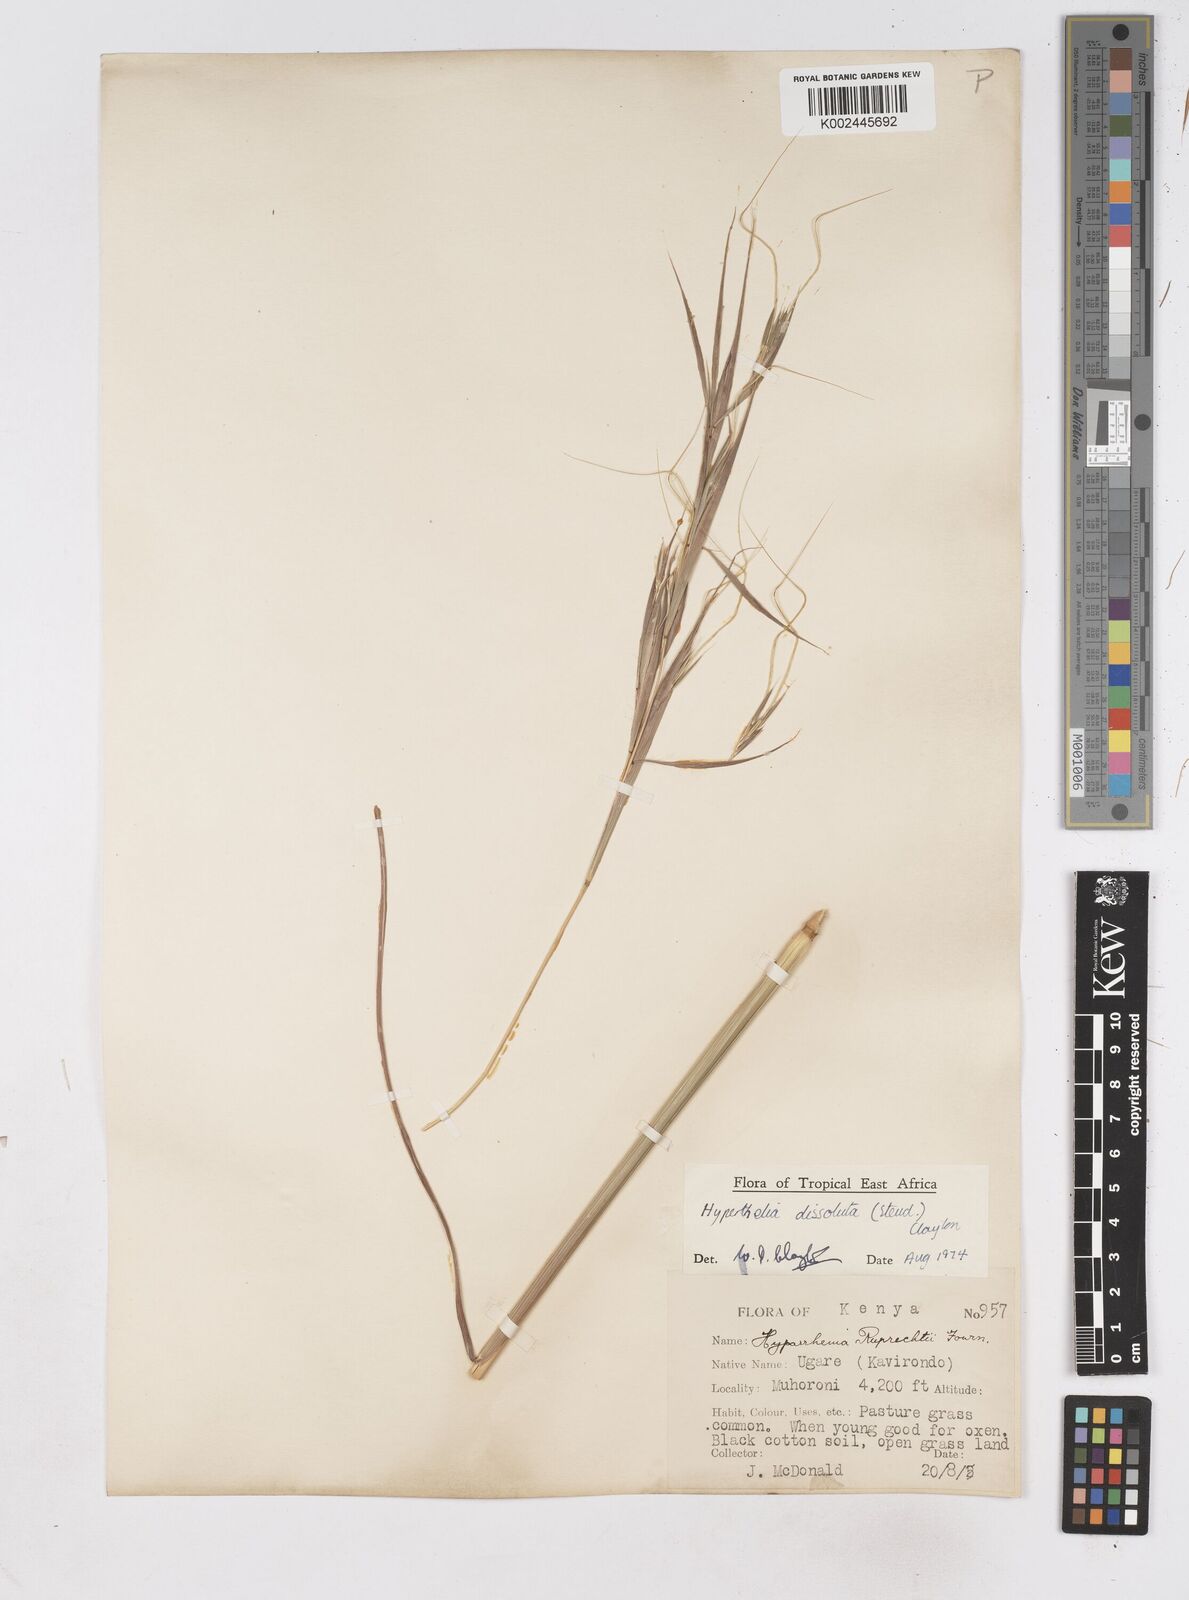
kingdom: Plantae
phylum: Tracheophyta
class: Liliopsida
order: Poales
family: Poaceae
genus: Hyperthelia
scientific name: Hyperthelia dissoluta
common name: Yellow thatching grass
